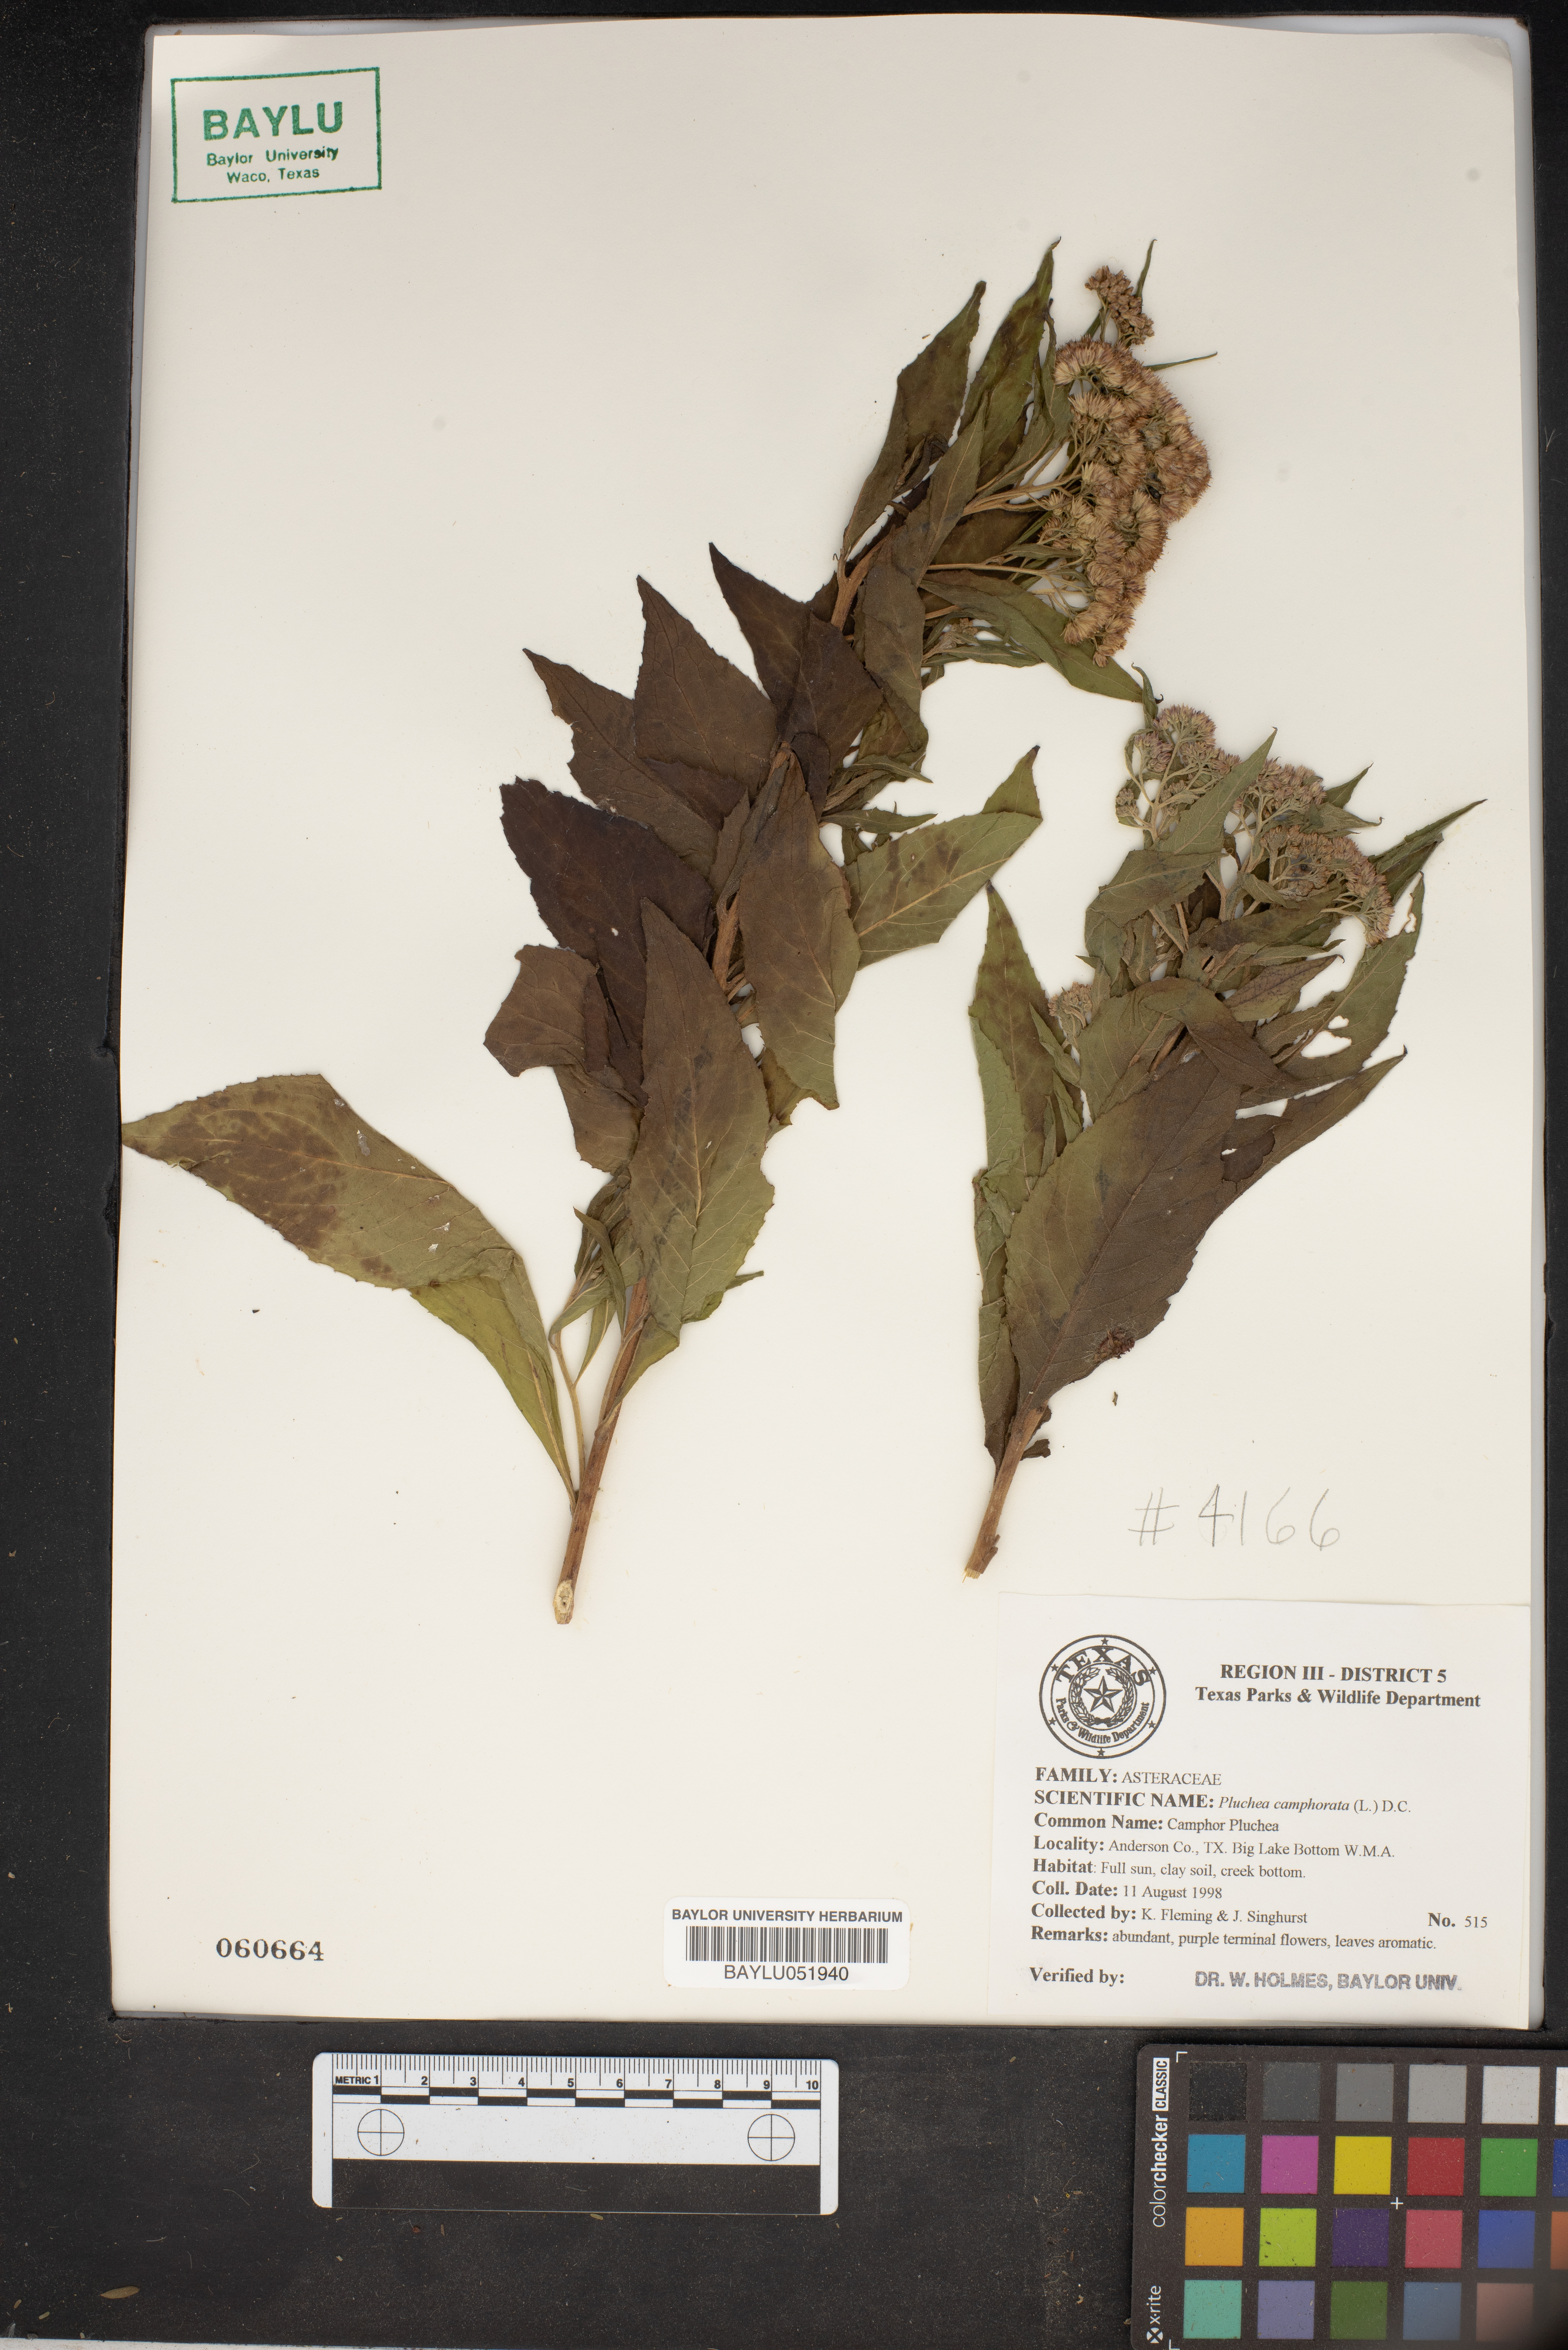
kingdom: Plantae
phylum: Tracheophyta
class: Magnoliopsida
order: Asterales
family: Asteraceae
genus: Pluchea
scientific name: Pluchea camphorata
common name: Camphor pluchea
